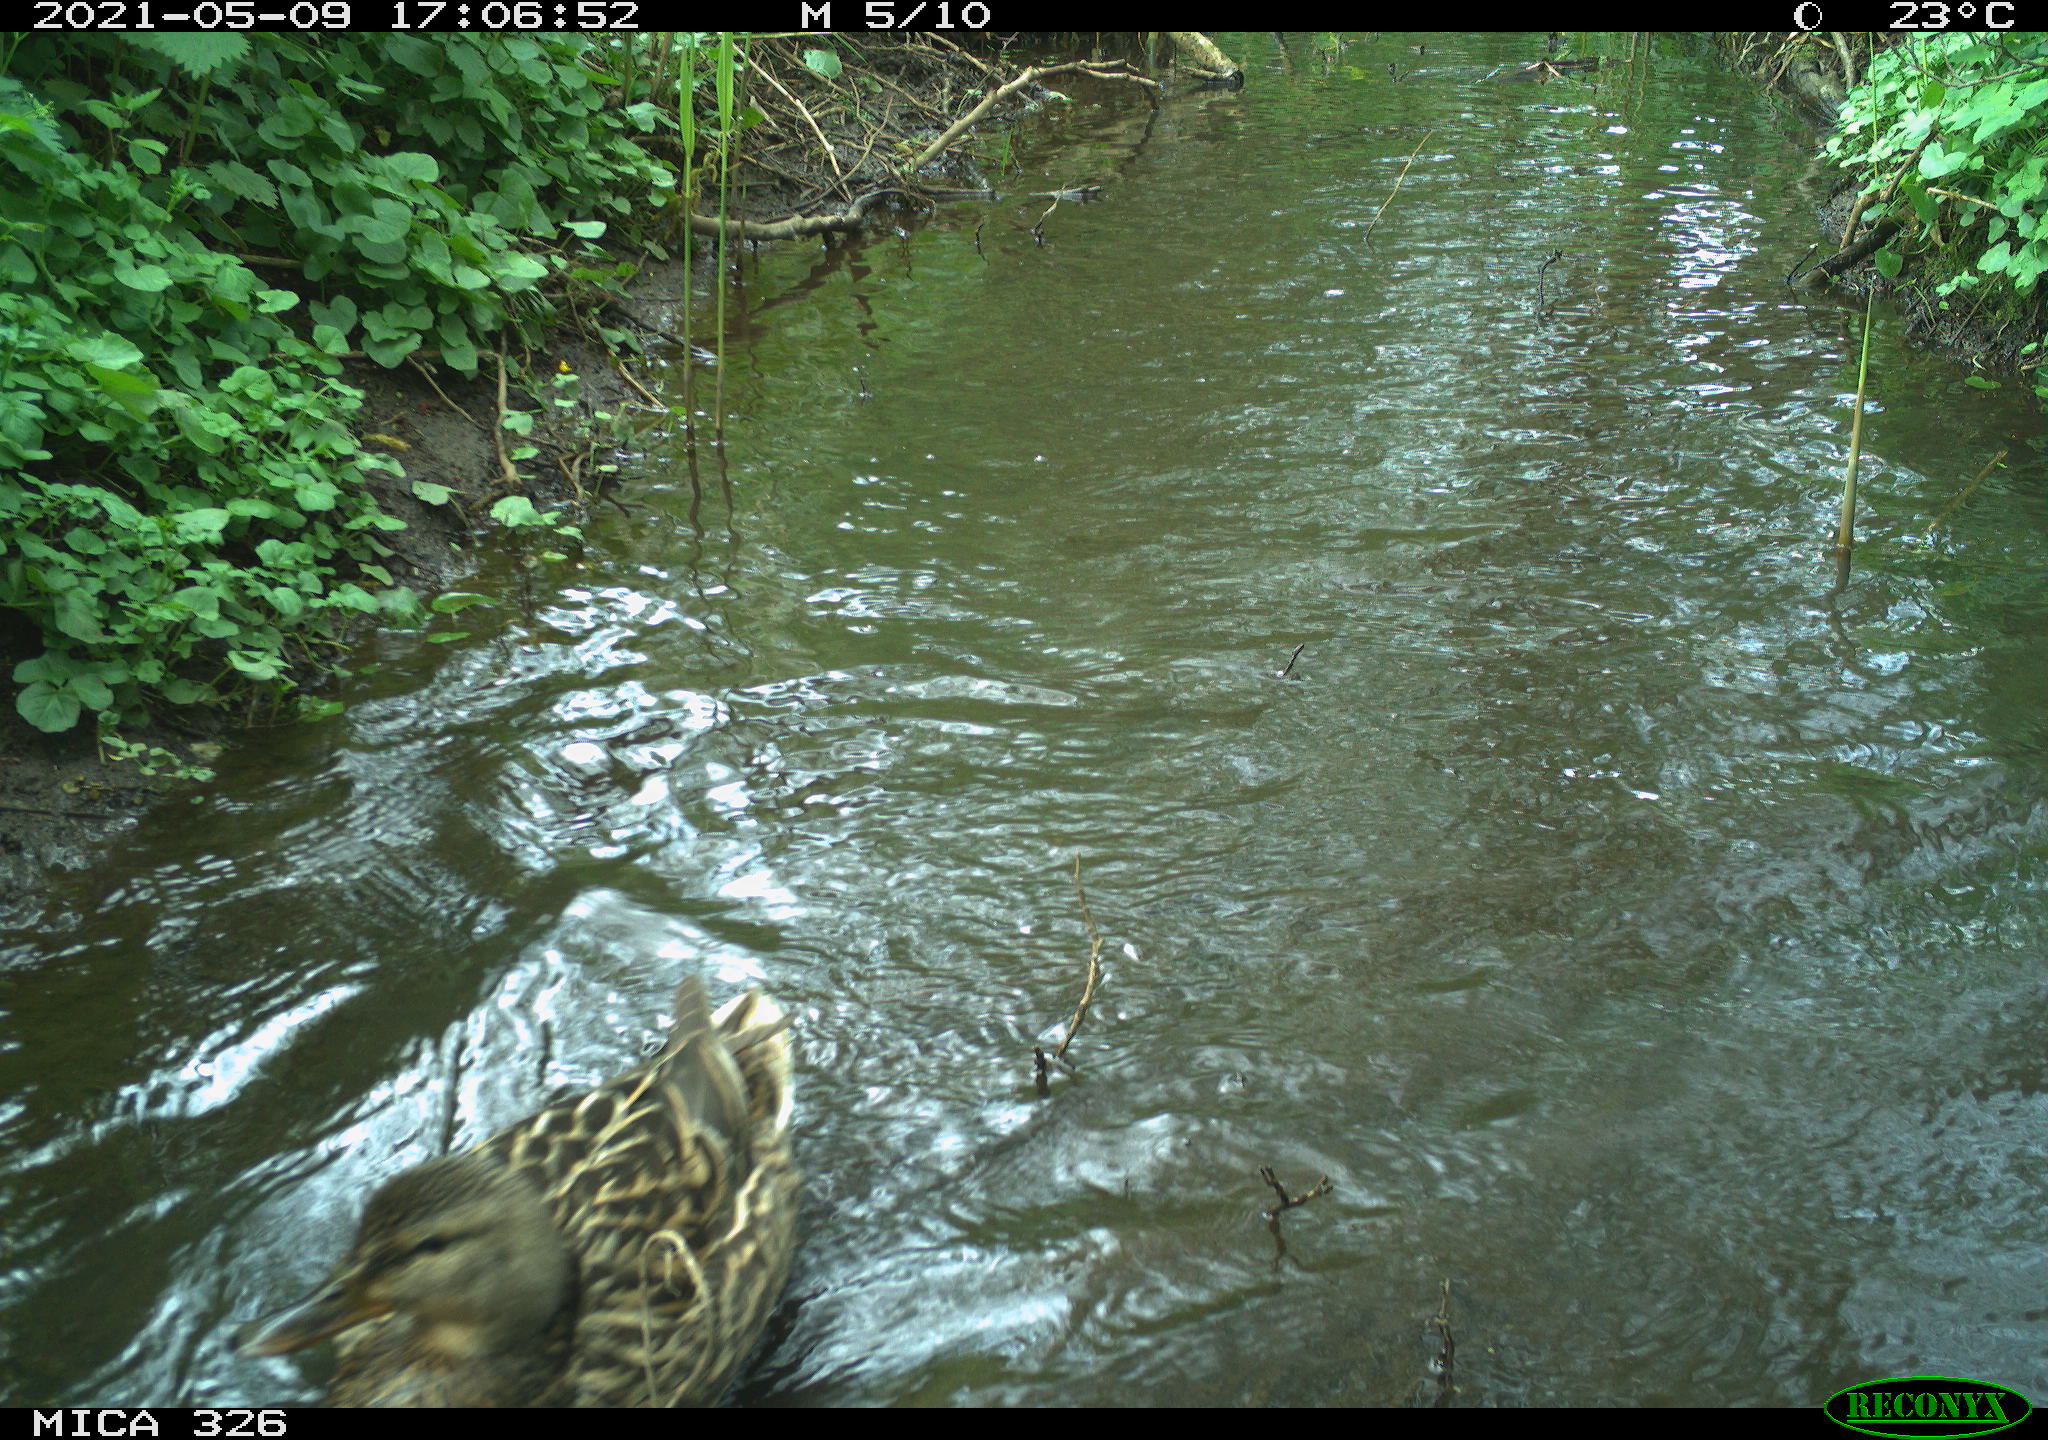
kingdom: Animalia
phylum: Chordata
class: Aves
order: Anseriformes
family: Anatidae
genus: Anas
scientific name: Anas platyrhynchos
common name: Mallard
